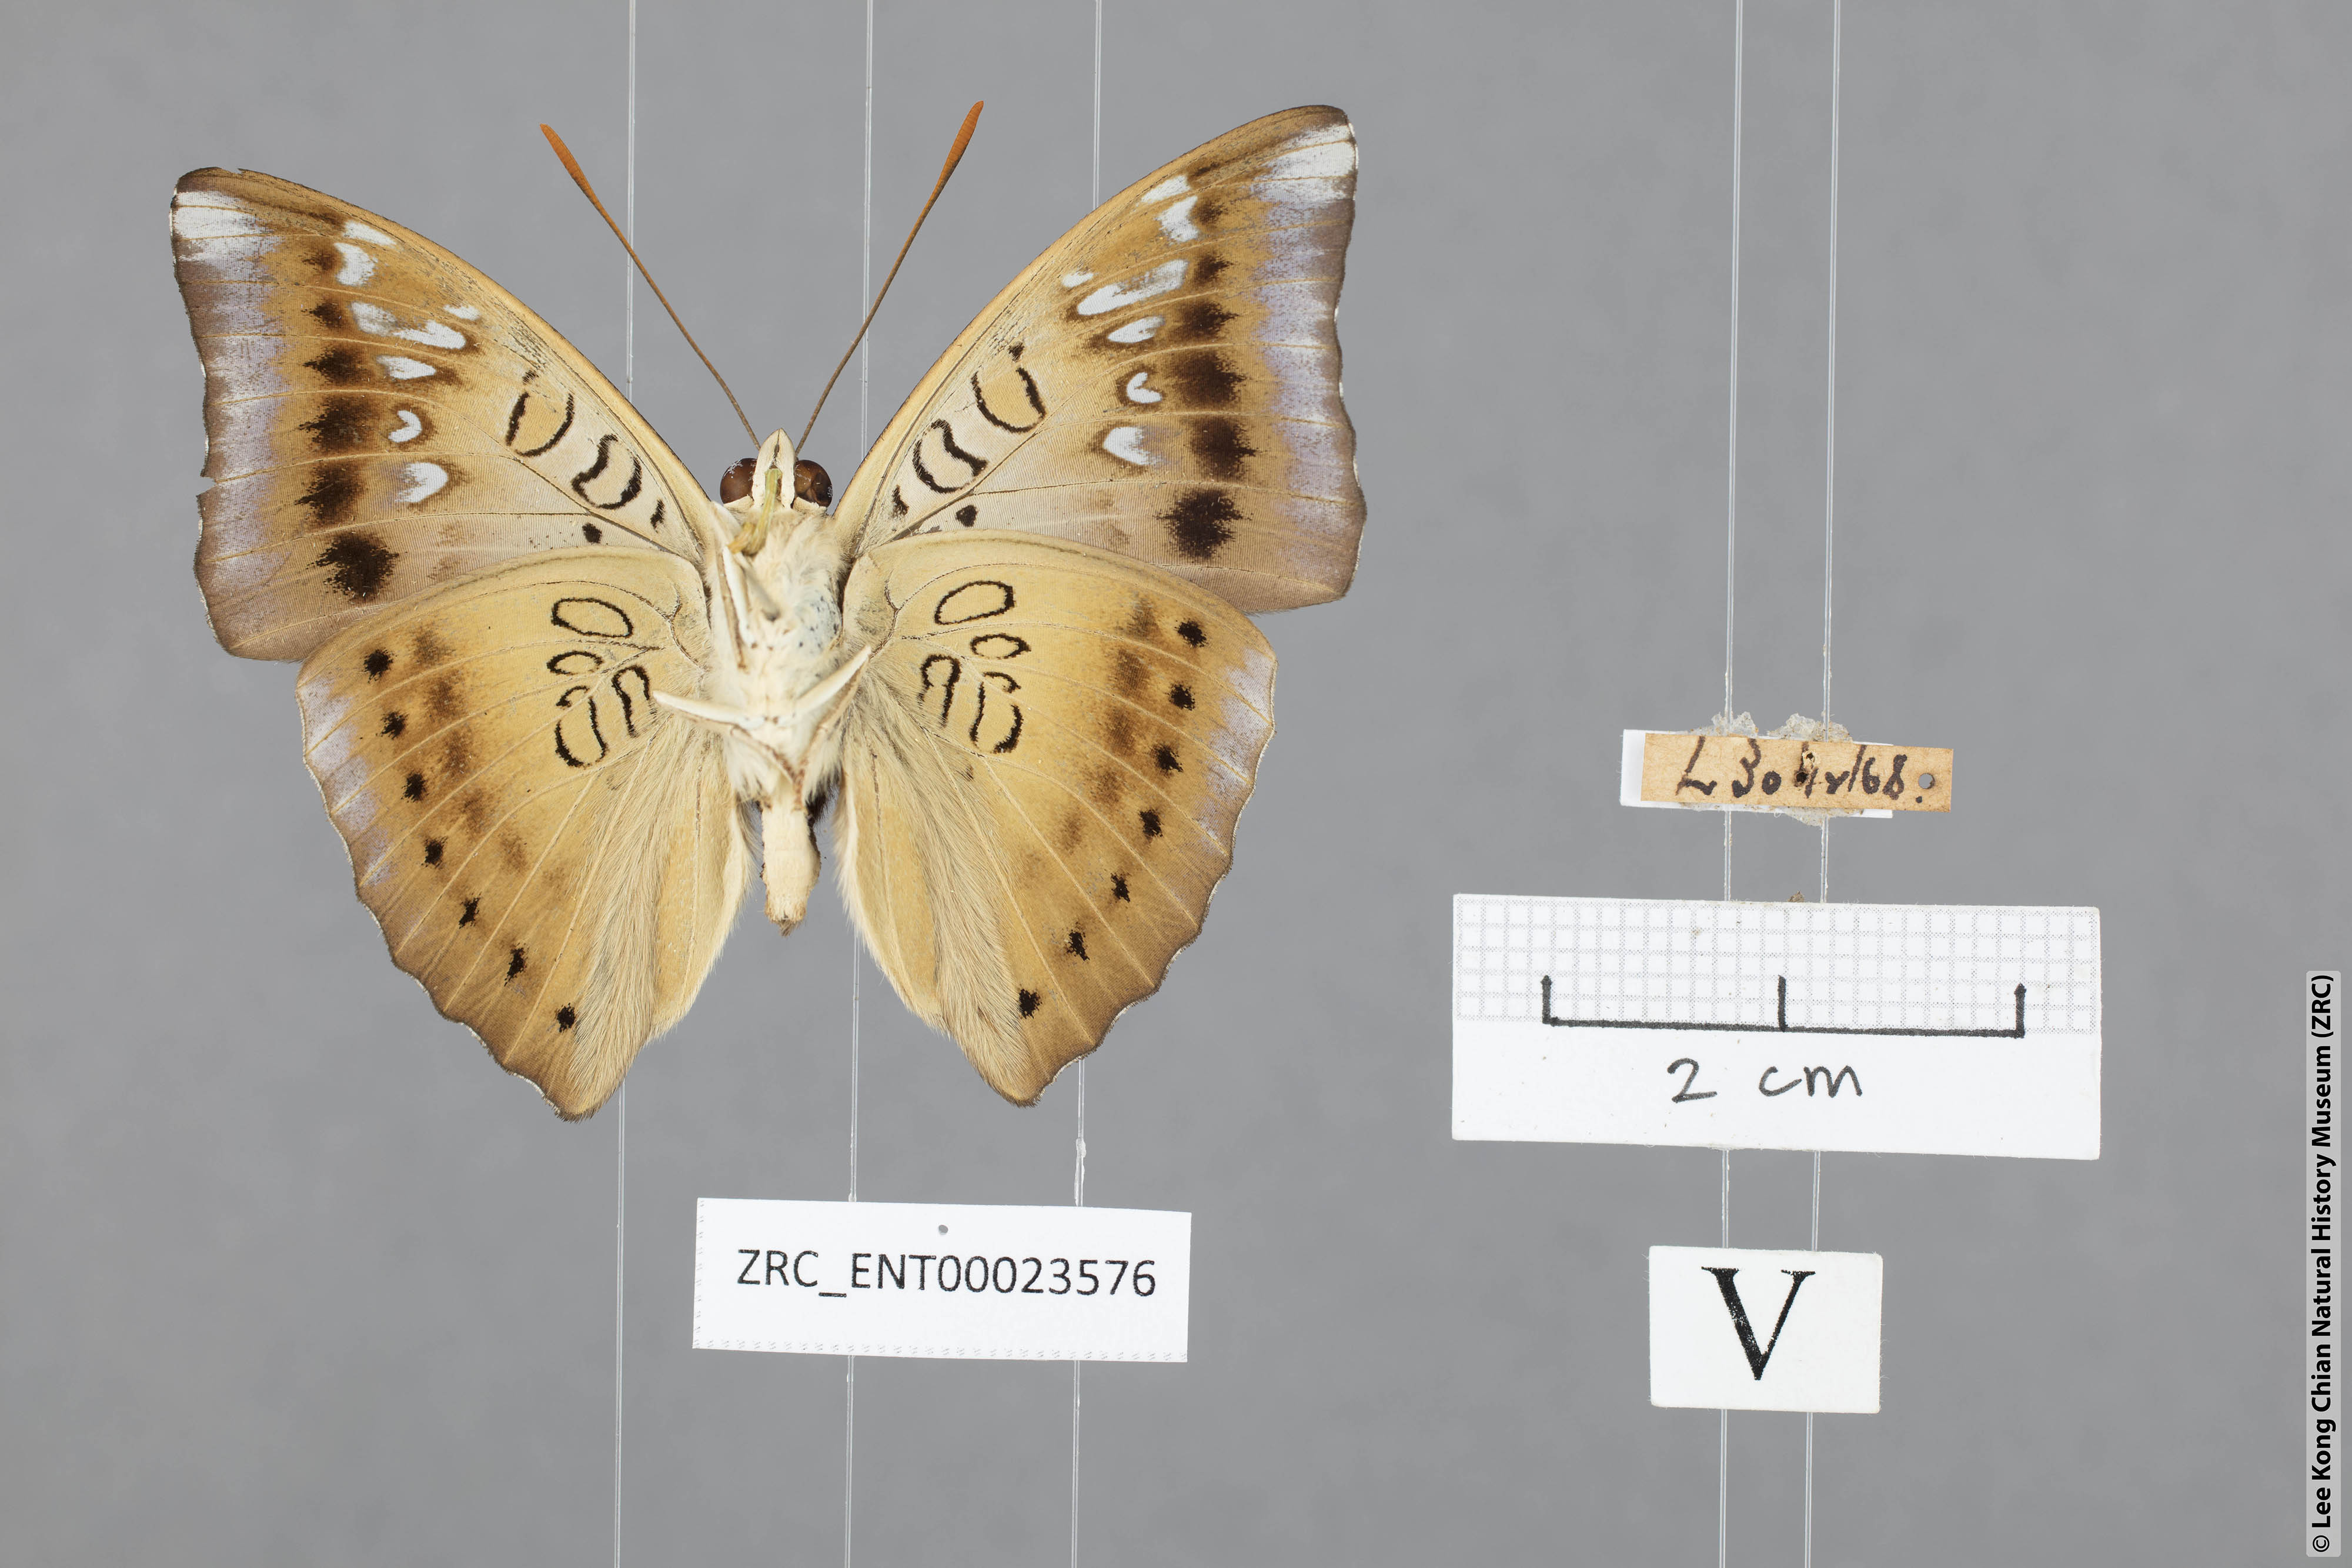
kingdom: Animalia
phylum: Arthropoda
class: Insecta
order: Lepidoptera
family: Nymphalidae
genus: Euthalia
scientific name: Euthalia aconthea
